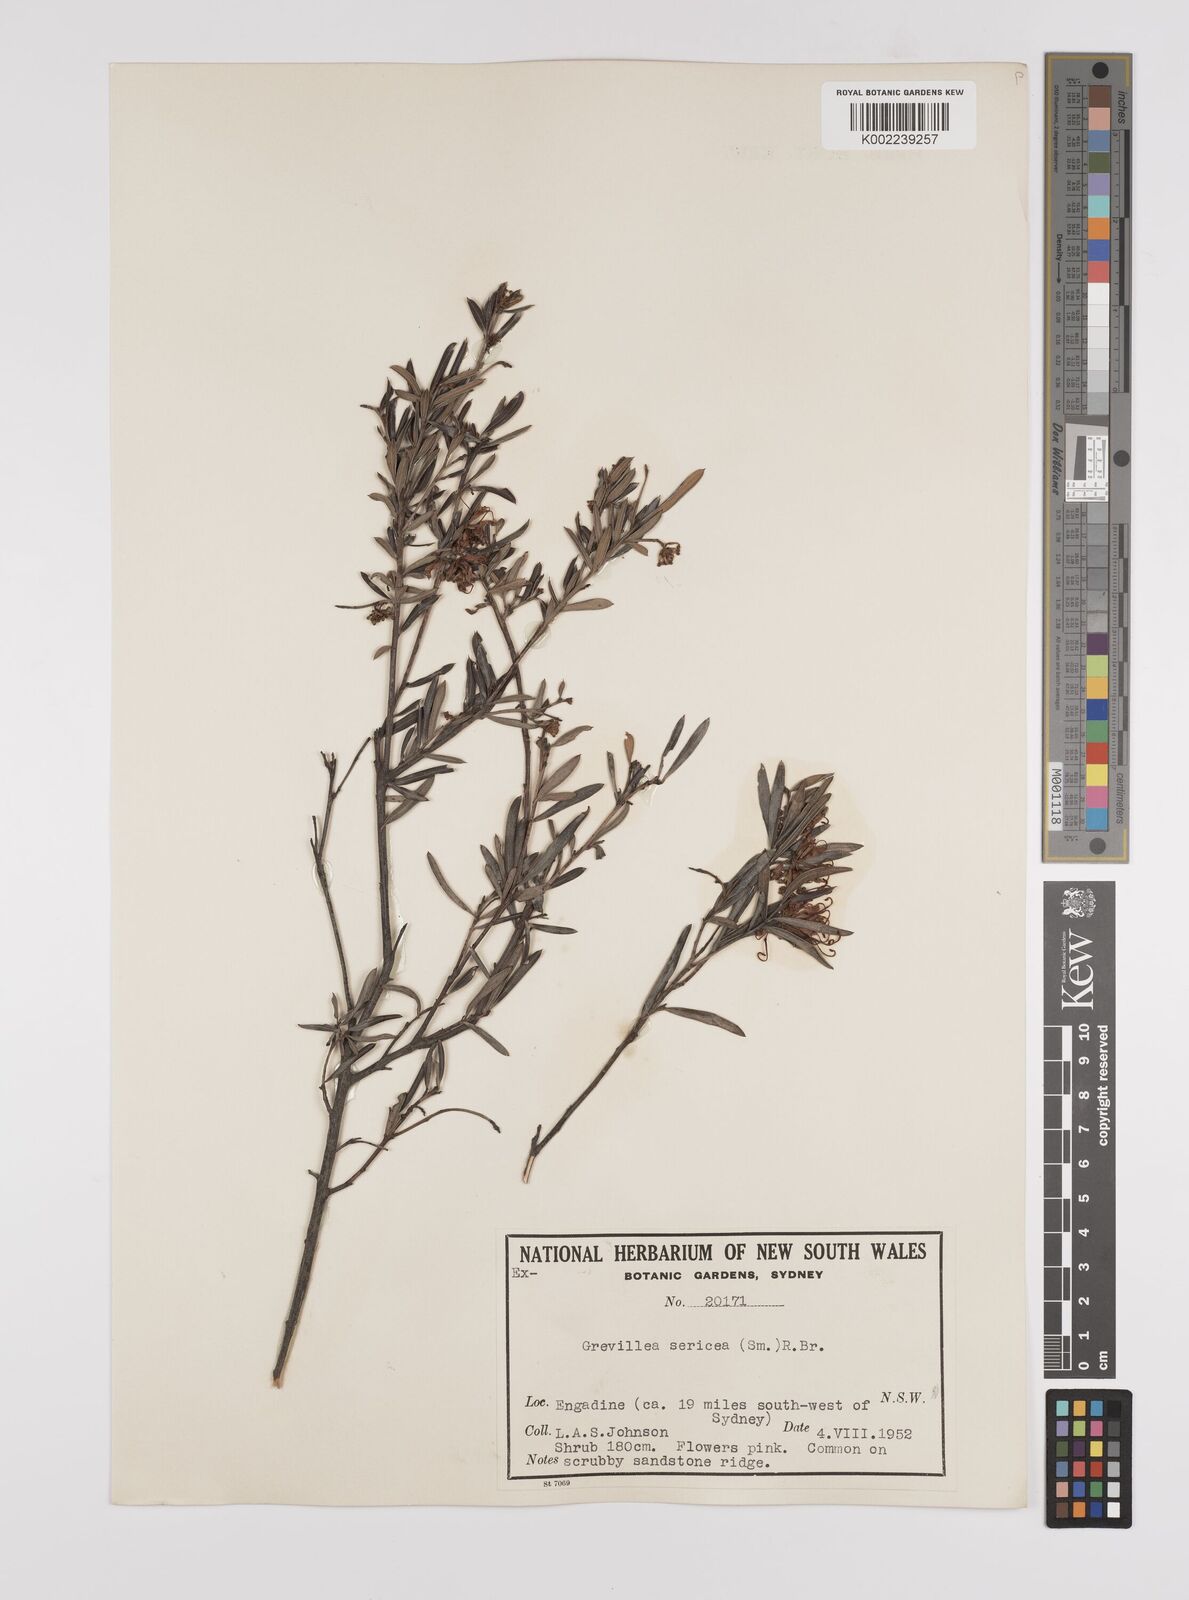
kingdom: Plantae
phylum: Tracheophyta
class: Magnoliopsida
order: Proteales
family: Proteaceae
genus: Grevillea
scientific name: Grevillea sericea
